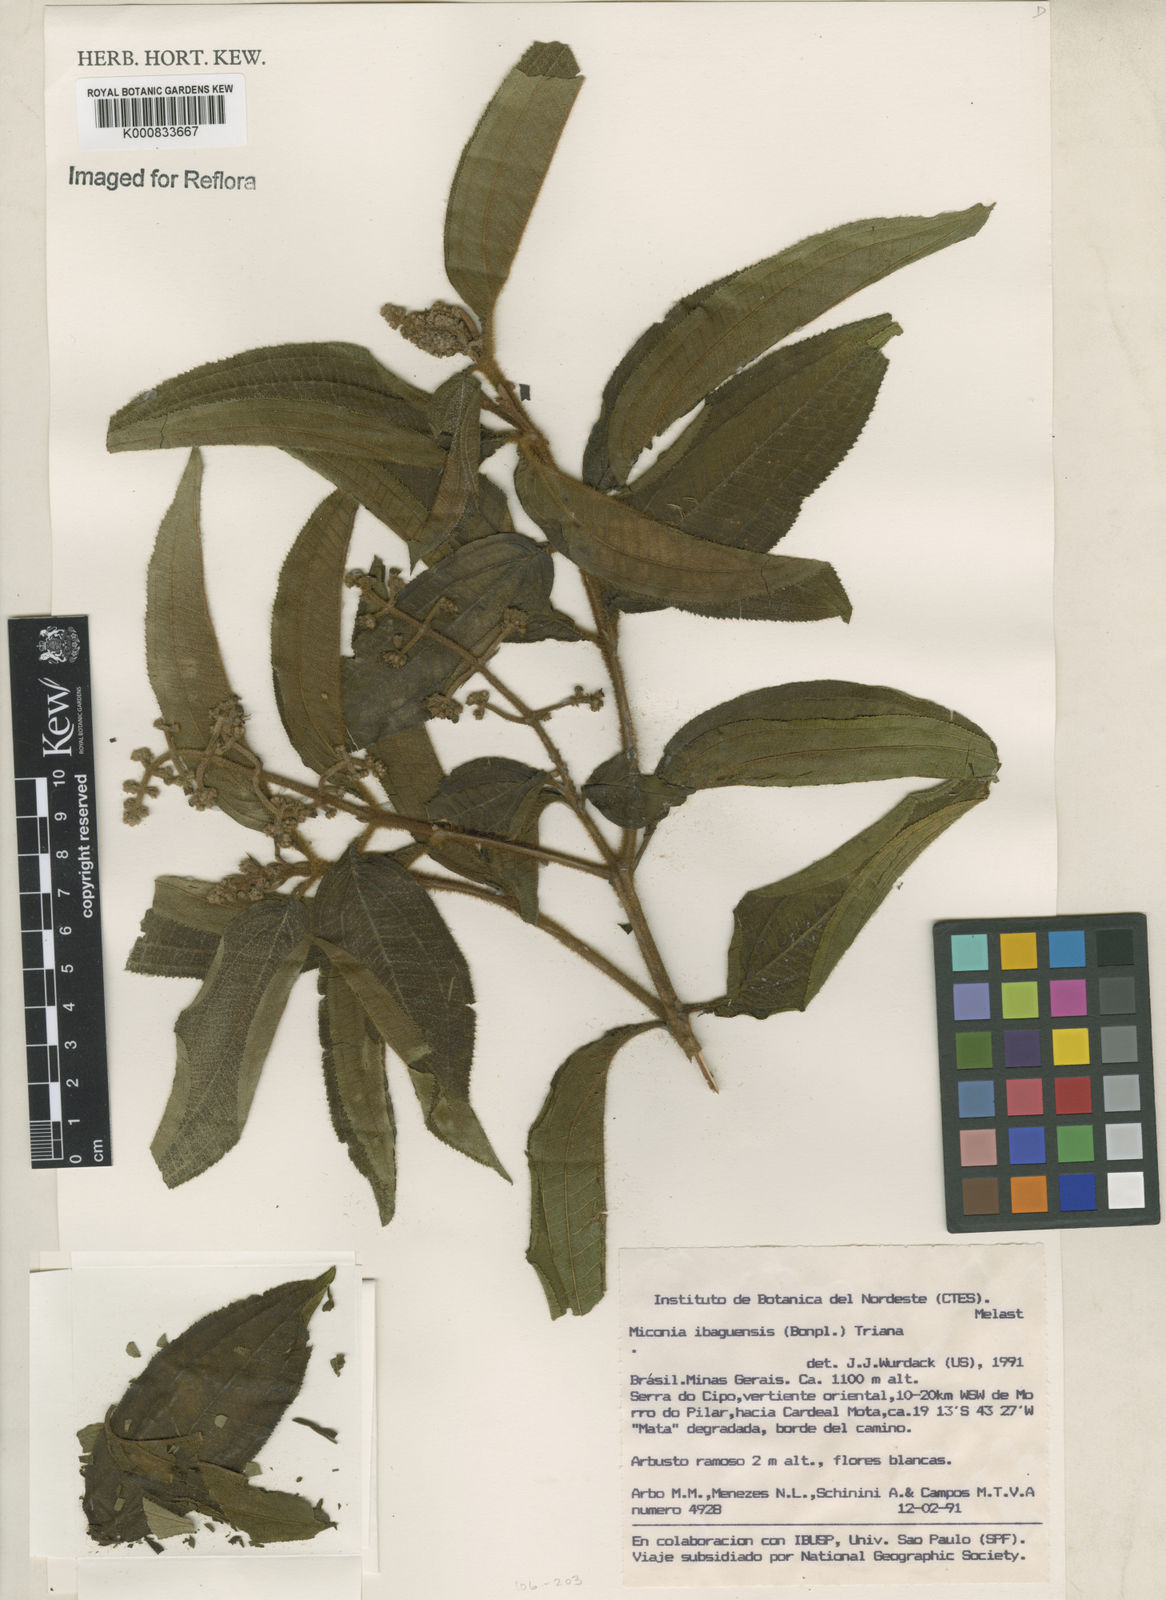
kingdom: Plantae
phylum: Tracheophyta
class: Magnoliopsida
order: Myrtales
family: Melastomataceae
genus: Miconia
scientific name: Miconia ibaguensis
